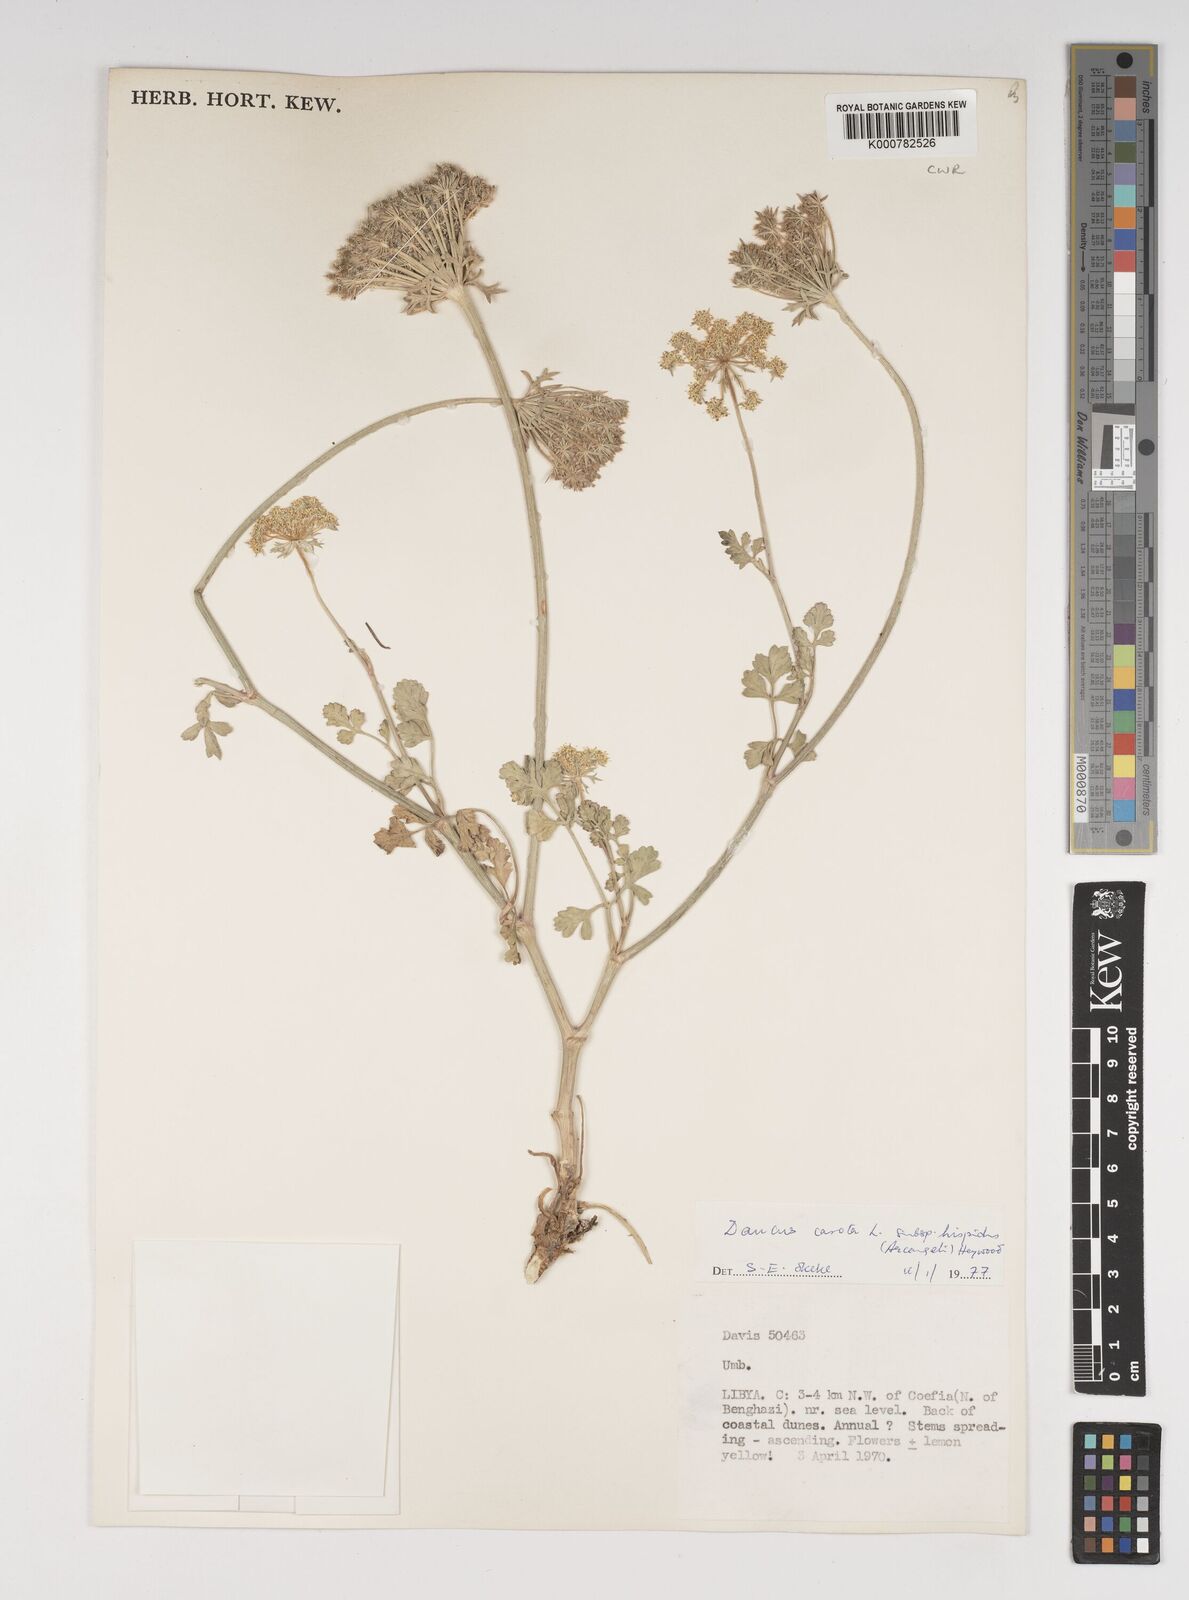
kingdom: Plantae
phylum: Tracheophyta
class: Magnoliopsida
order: Apiales
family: Apiaceae
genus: Daucus
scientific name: Daucus carota
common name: Wild carrot
